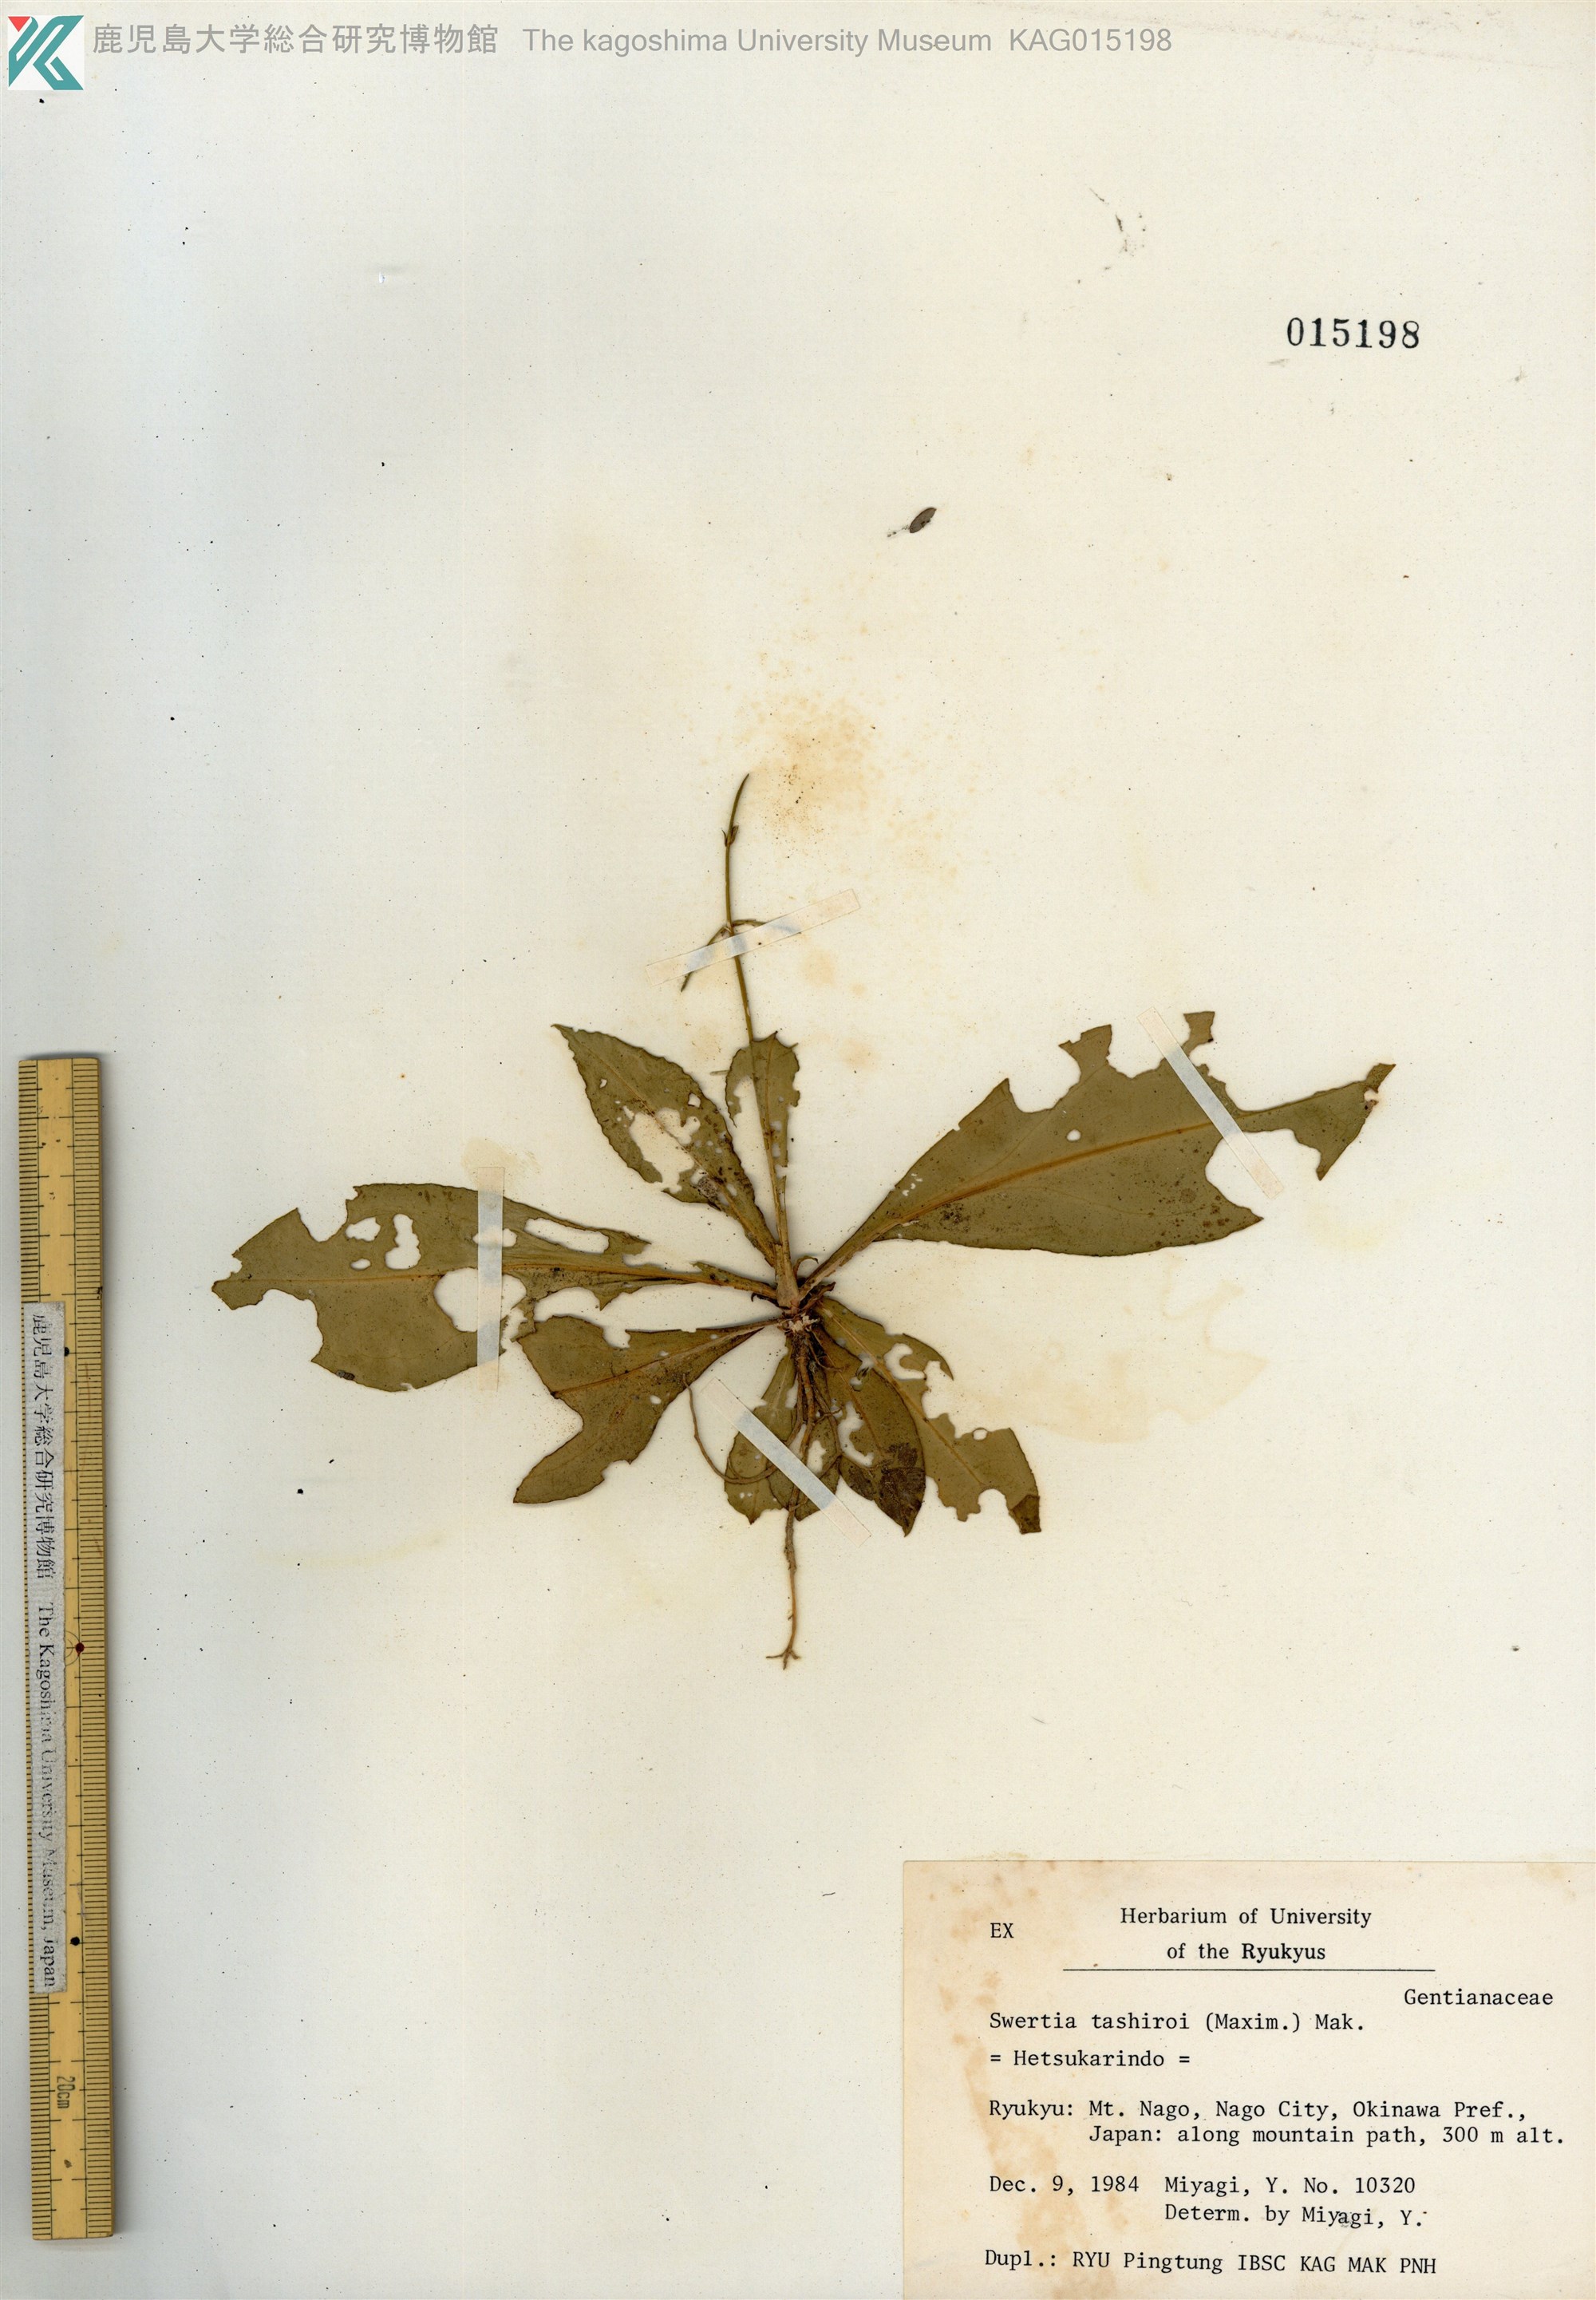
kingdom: Plantae
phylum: Tracheophyta
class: Magnoliopsida
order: Gentianales
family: Gentianaceae
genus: Swertia
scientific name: Swertia tashiroi
